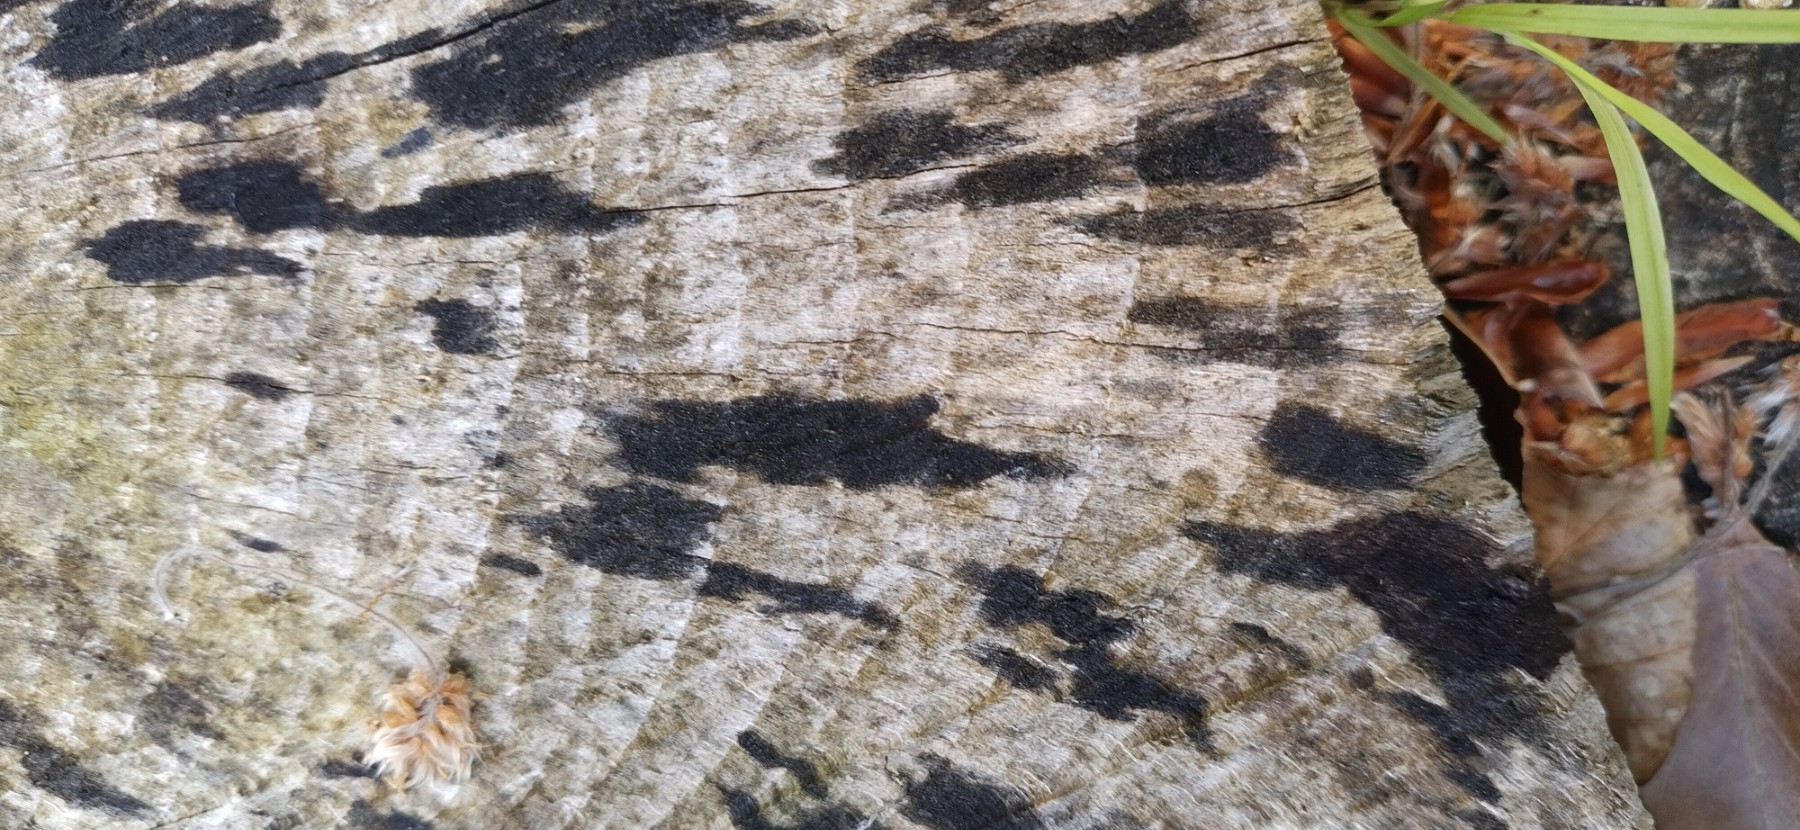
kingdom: Fungi
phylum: Ascomycota
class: Leotiomycetes
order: Helotiales
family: Helotiaceae
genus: Bispora
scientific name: Bispora pallescens
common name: måtte-snitskive
